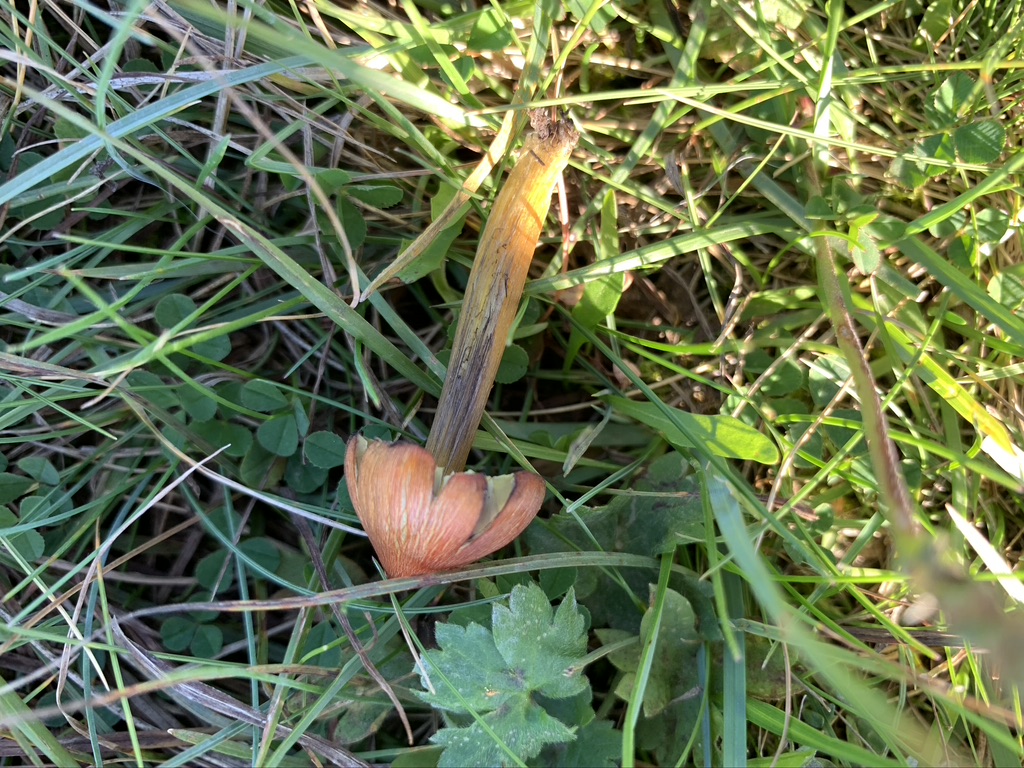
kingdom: Fungi
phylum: Basidiomycota
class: Agaricomycetes
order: Agaricales
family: Hygrophoraceae
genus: Hygrocybe
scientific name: Hygrocybe conica
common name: kegle-vokshat
